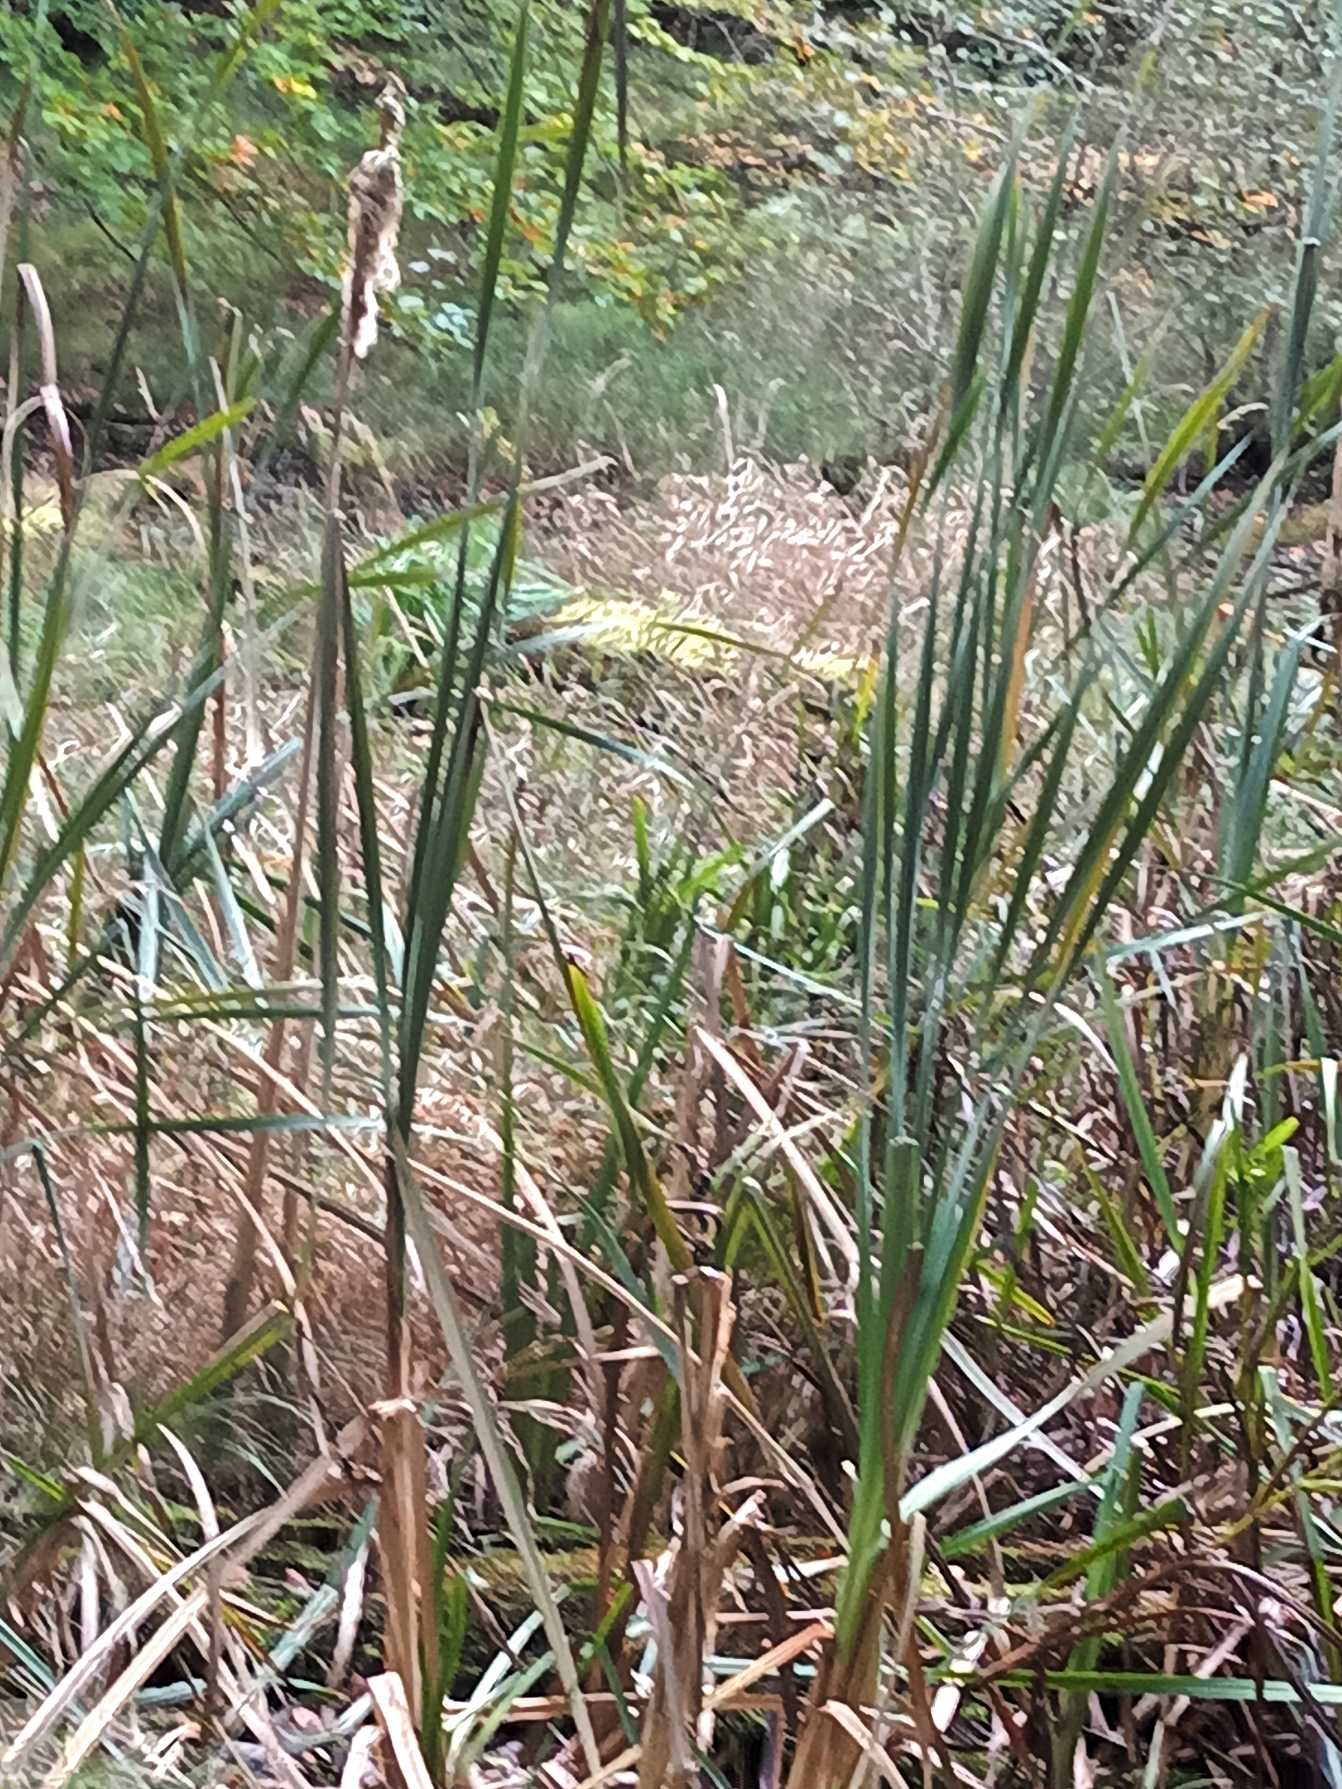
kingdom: Plantae
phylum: Tracheophyta
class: Liliopsida
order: Poales
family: Typhaceae
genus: Typha
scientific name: Typha latifolia
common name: Bredbladet dunhammer
